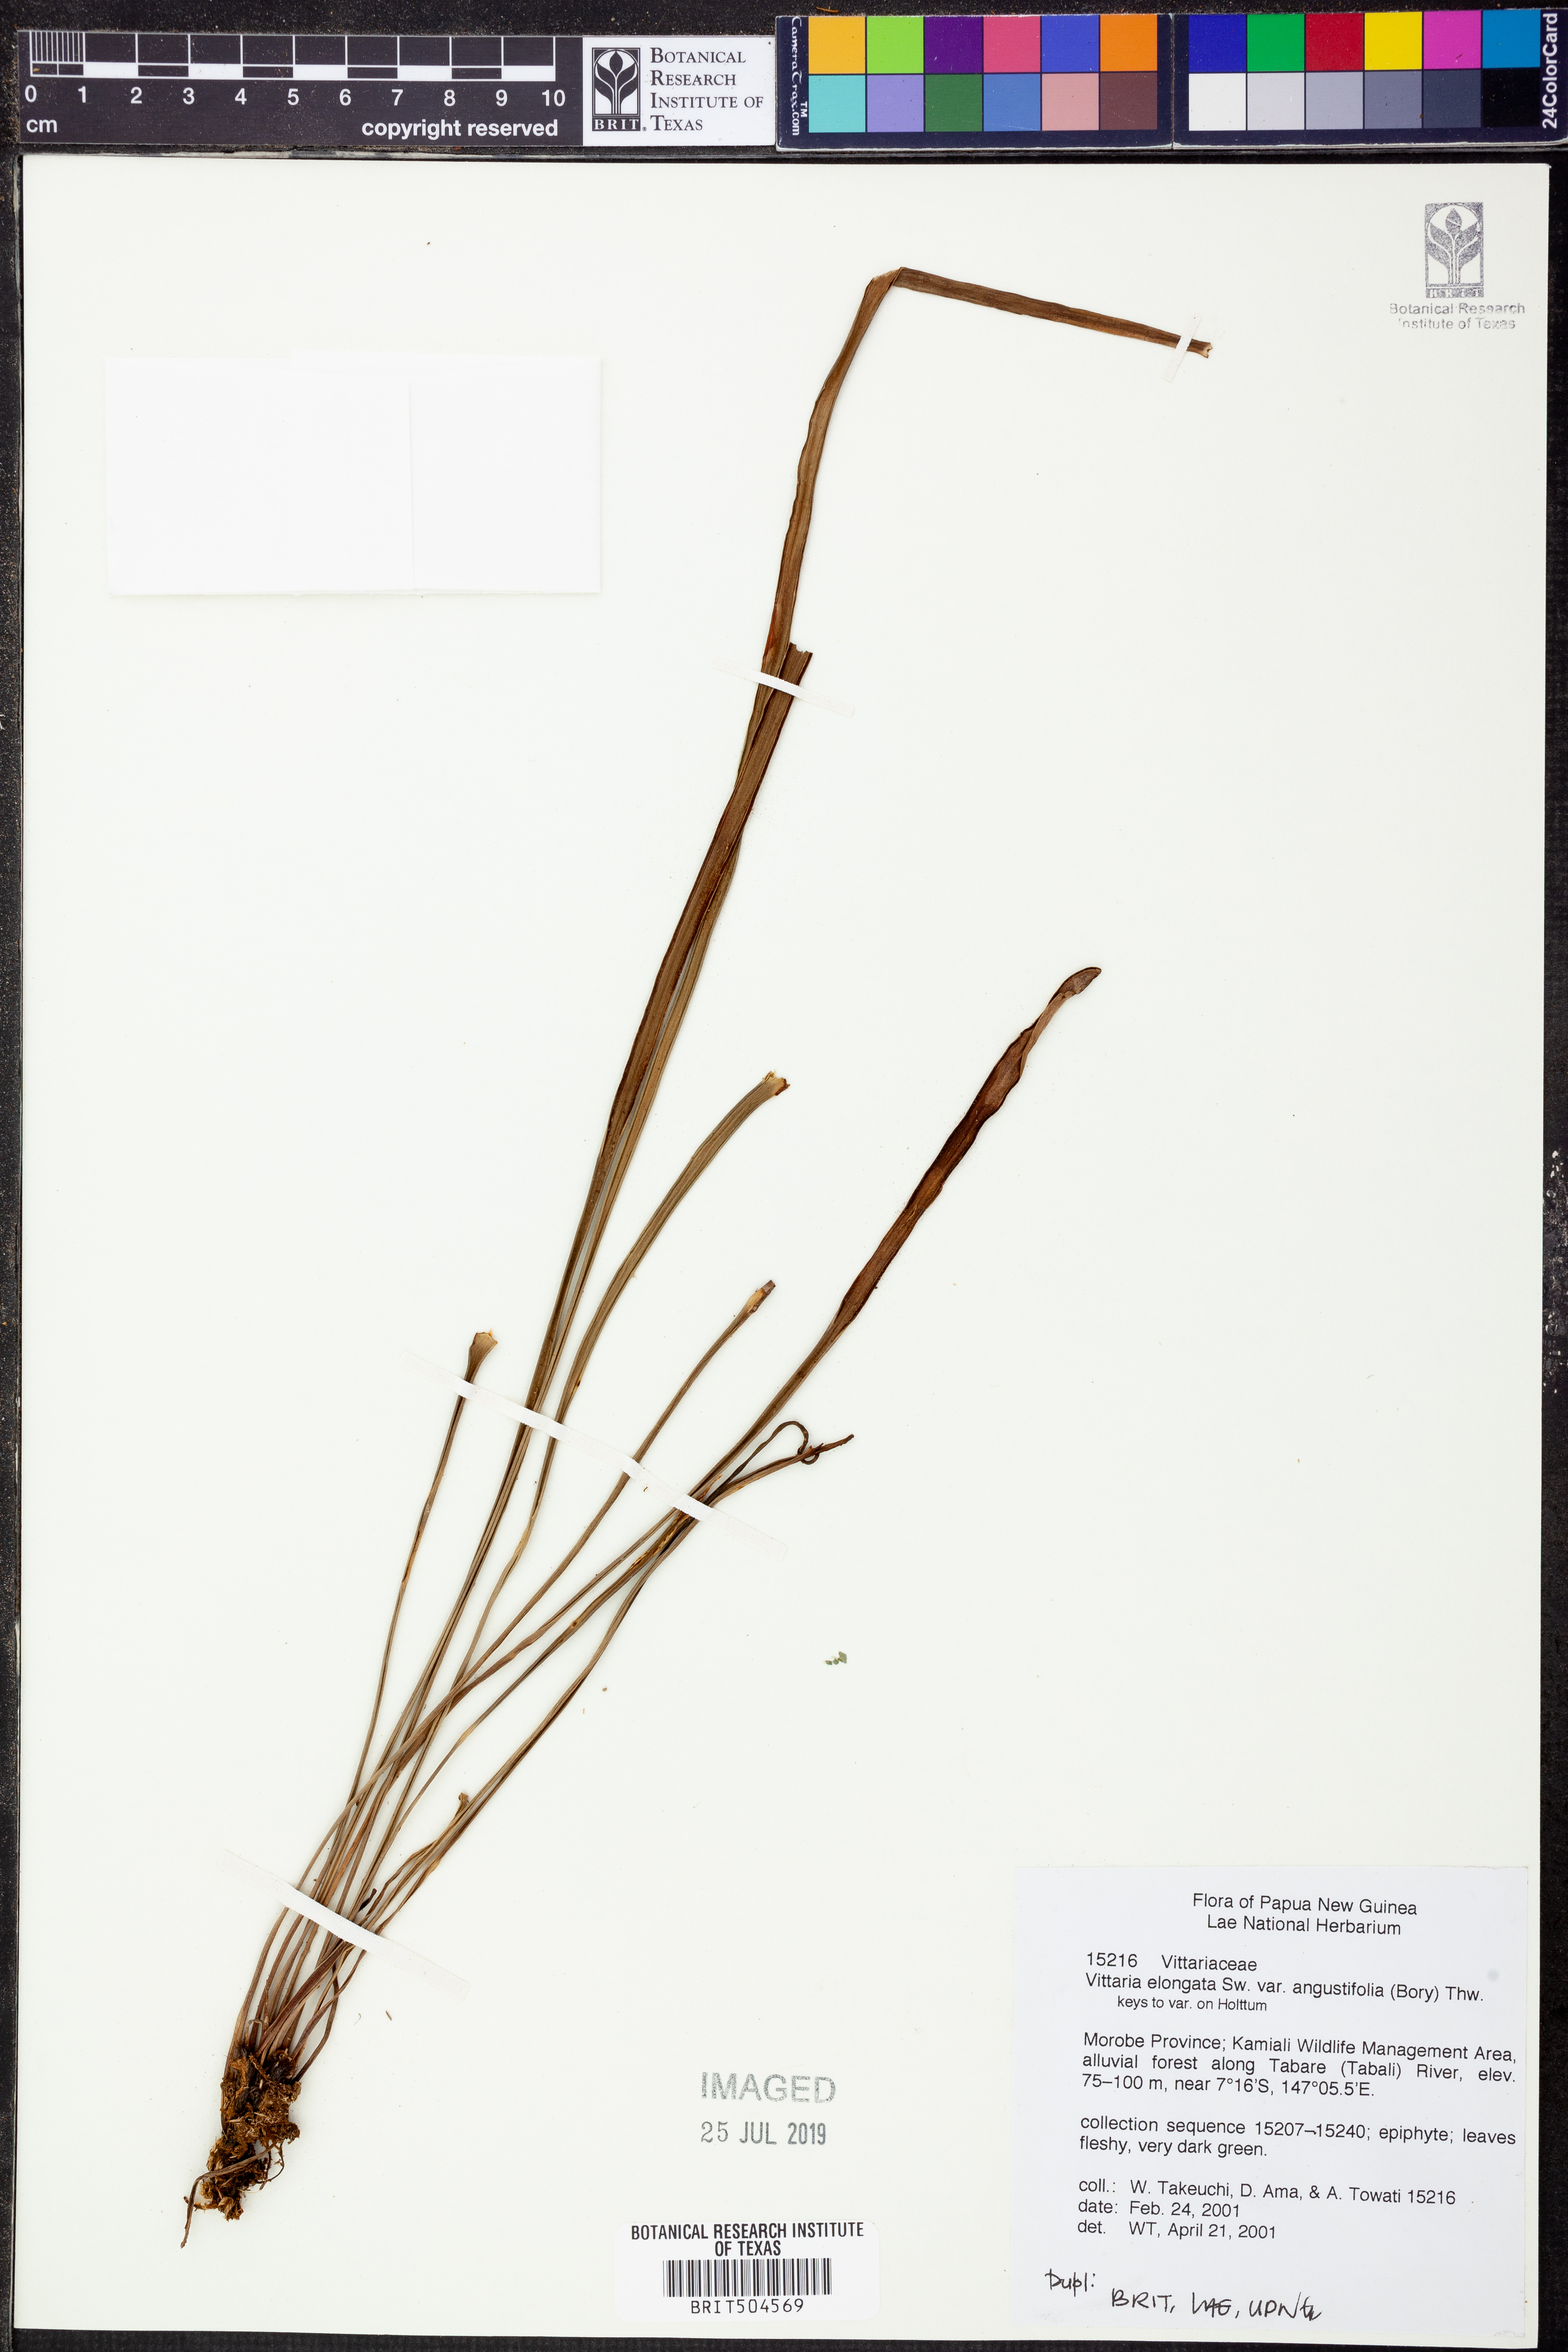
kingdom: Plantae
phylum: Tracheophyta
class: Polypodiopsida
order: Polypodiales
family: Pteridaceae
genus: Haplopteris
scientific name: Haplopteris zosterifolia
